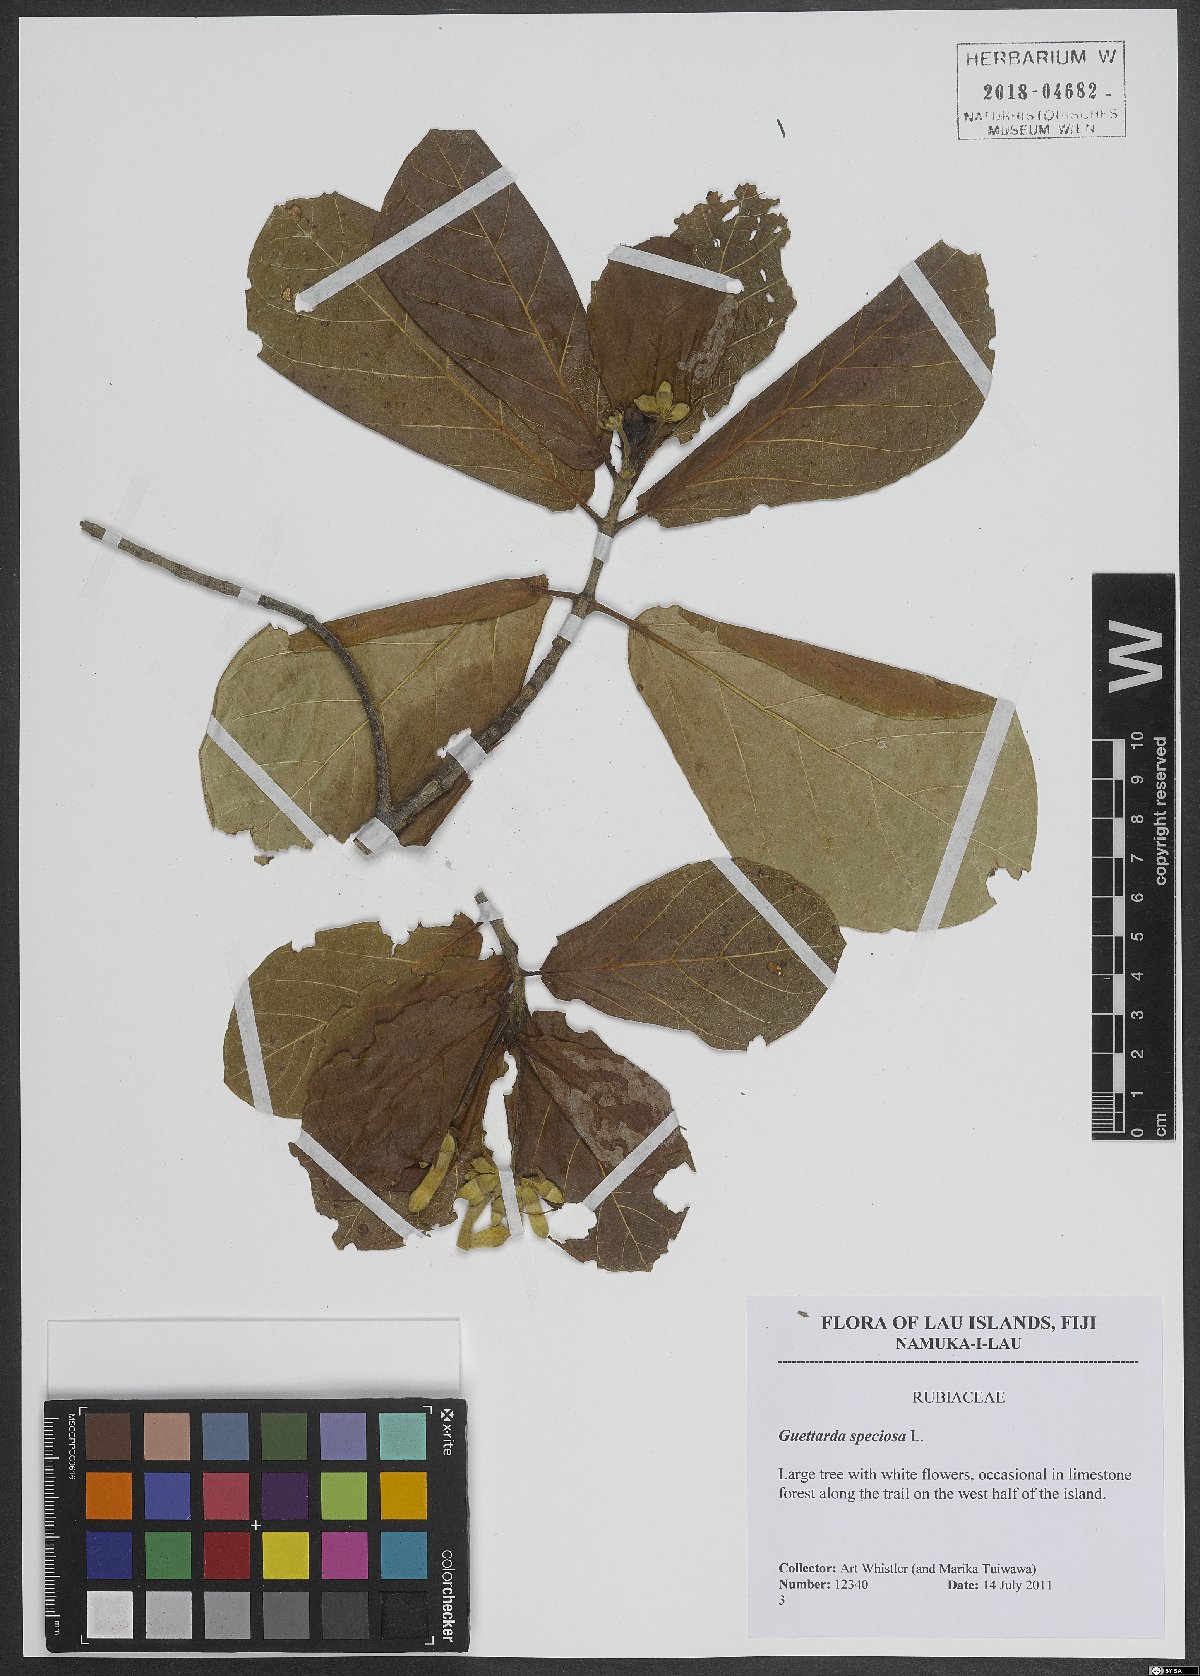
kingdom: Plantae
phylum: Tracheophyta
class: Magnoliopsida
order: Gentianales
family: Rubiaceae
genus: Guettarda
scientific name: Guettarda speciosa
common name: Sea randa
